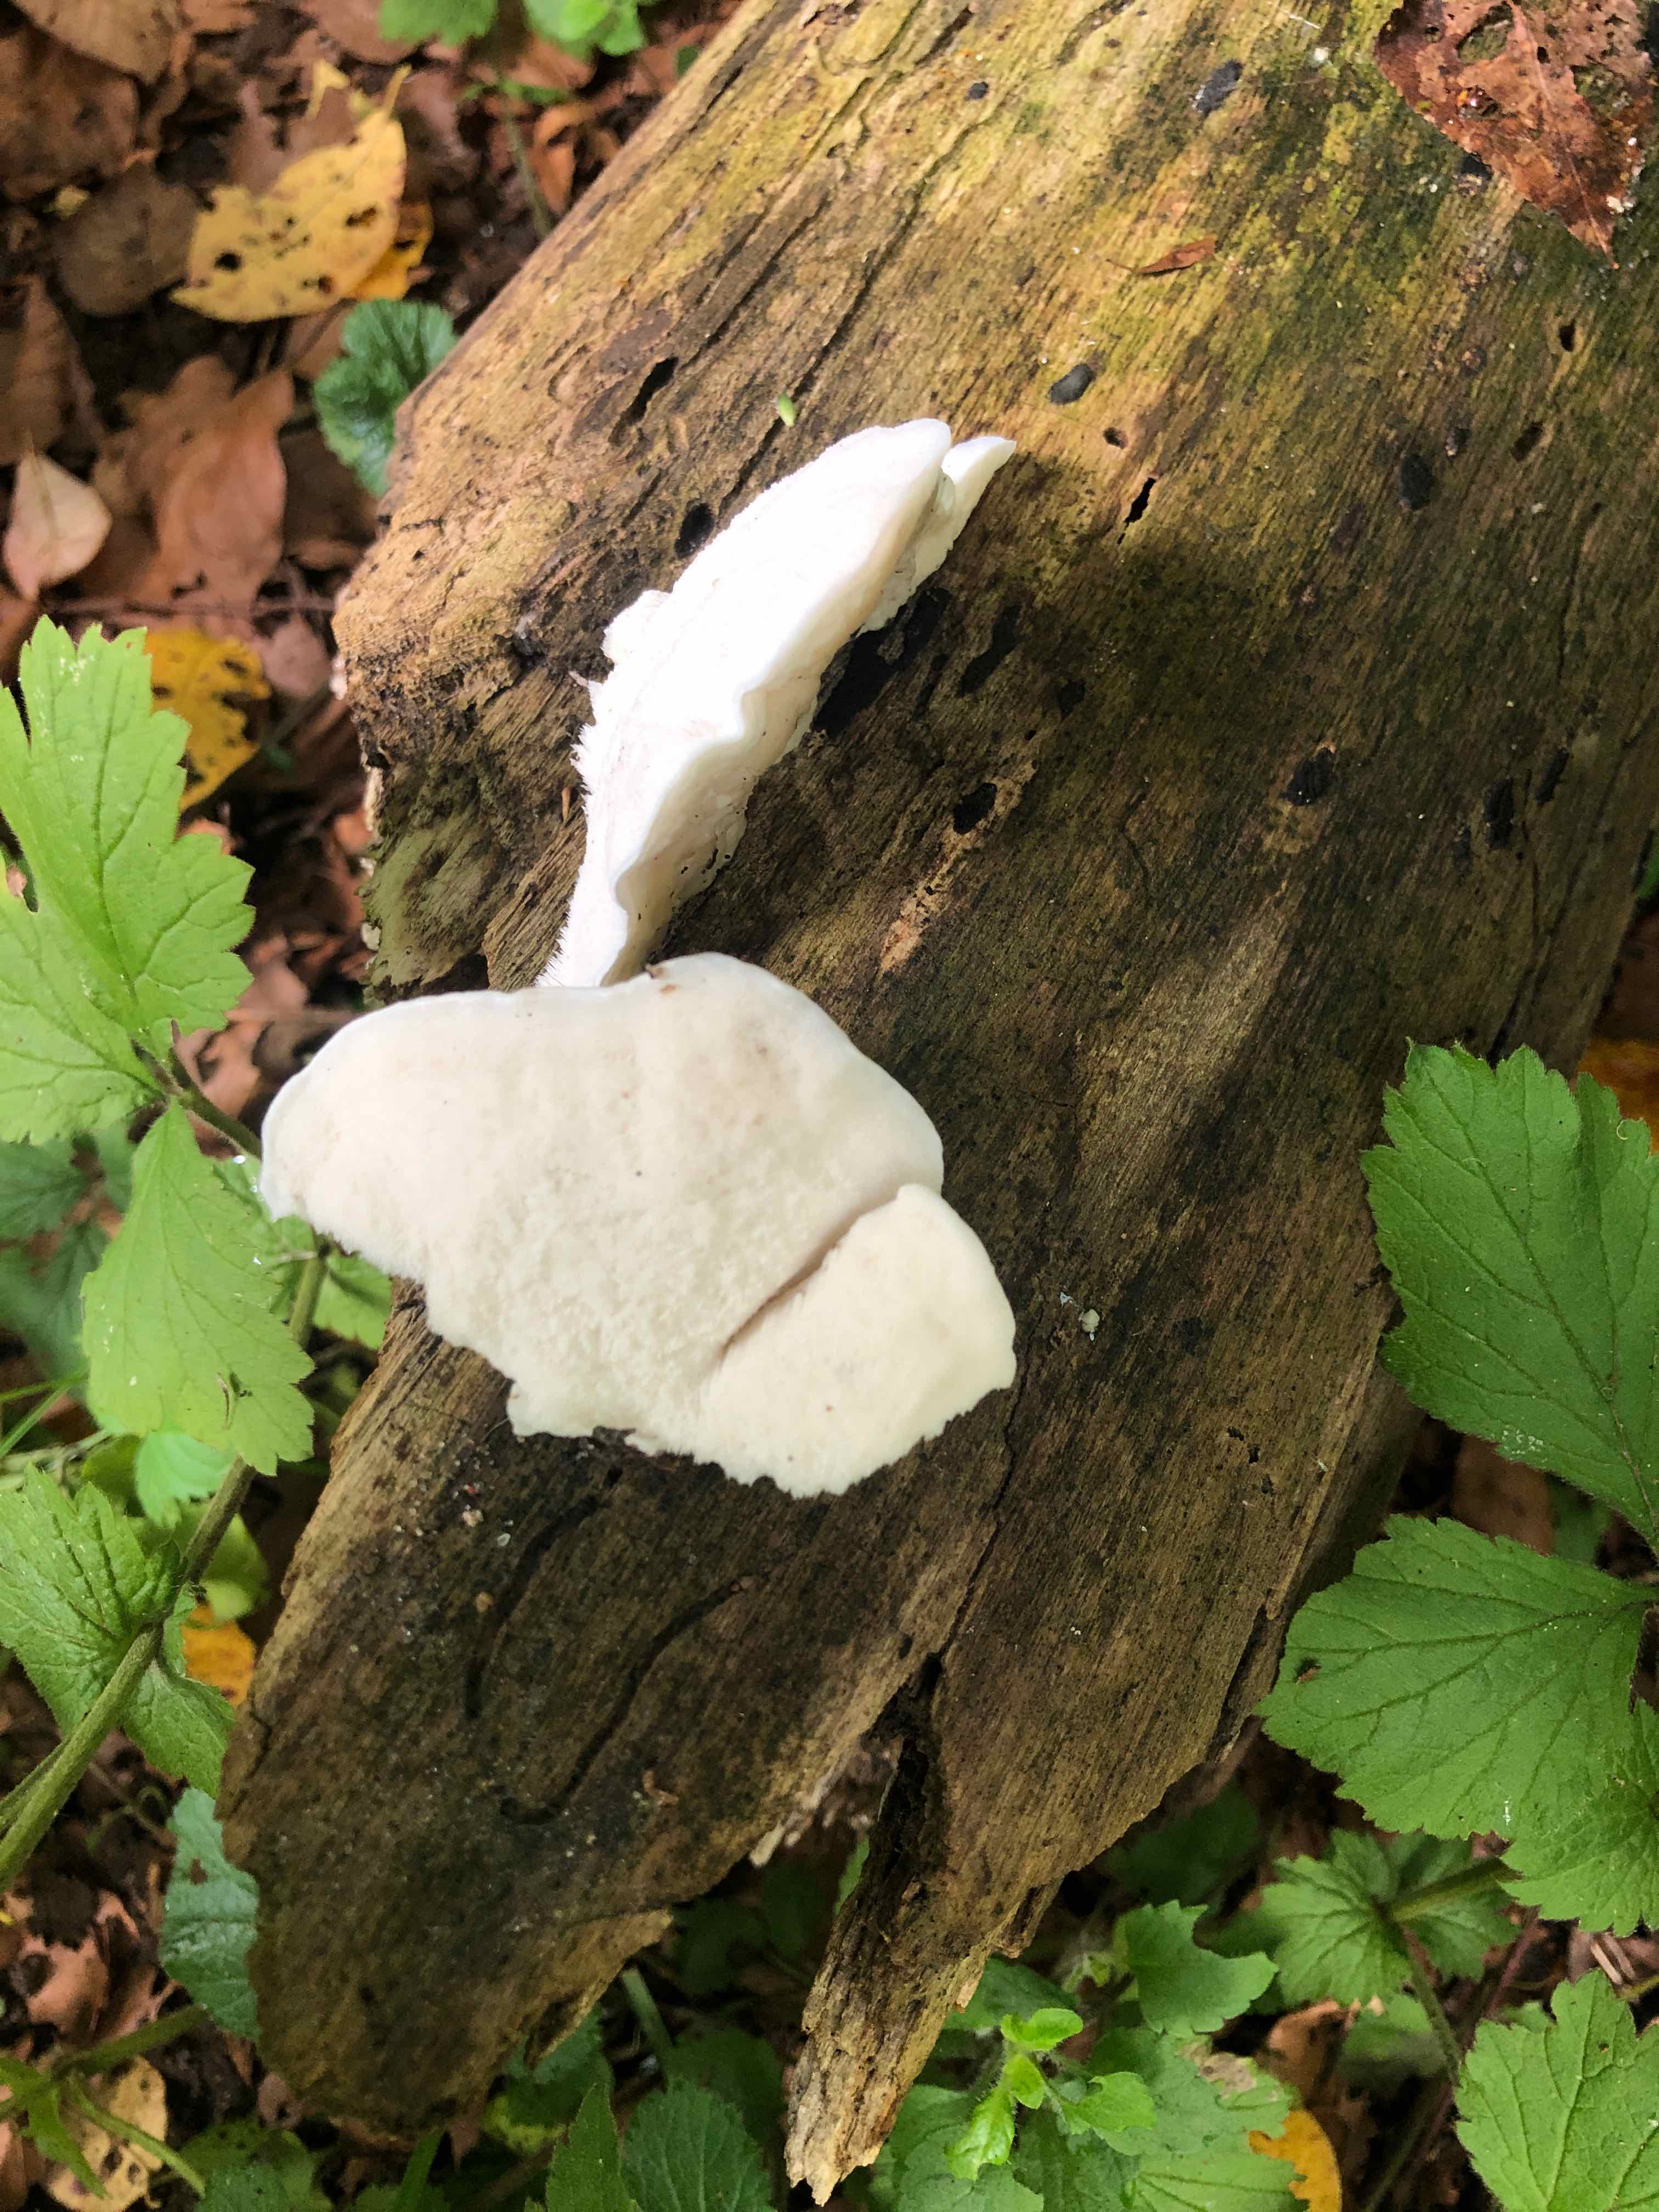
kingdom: Fungi
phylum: Basidiomycota
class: Agaricomycetes
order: Polyporales
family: Incrustoporiaceae
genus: Tyromyces
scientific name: Tyromyces lacteus
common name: mælkehvid kødporesvamp
